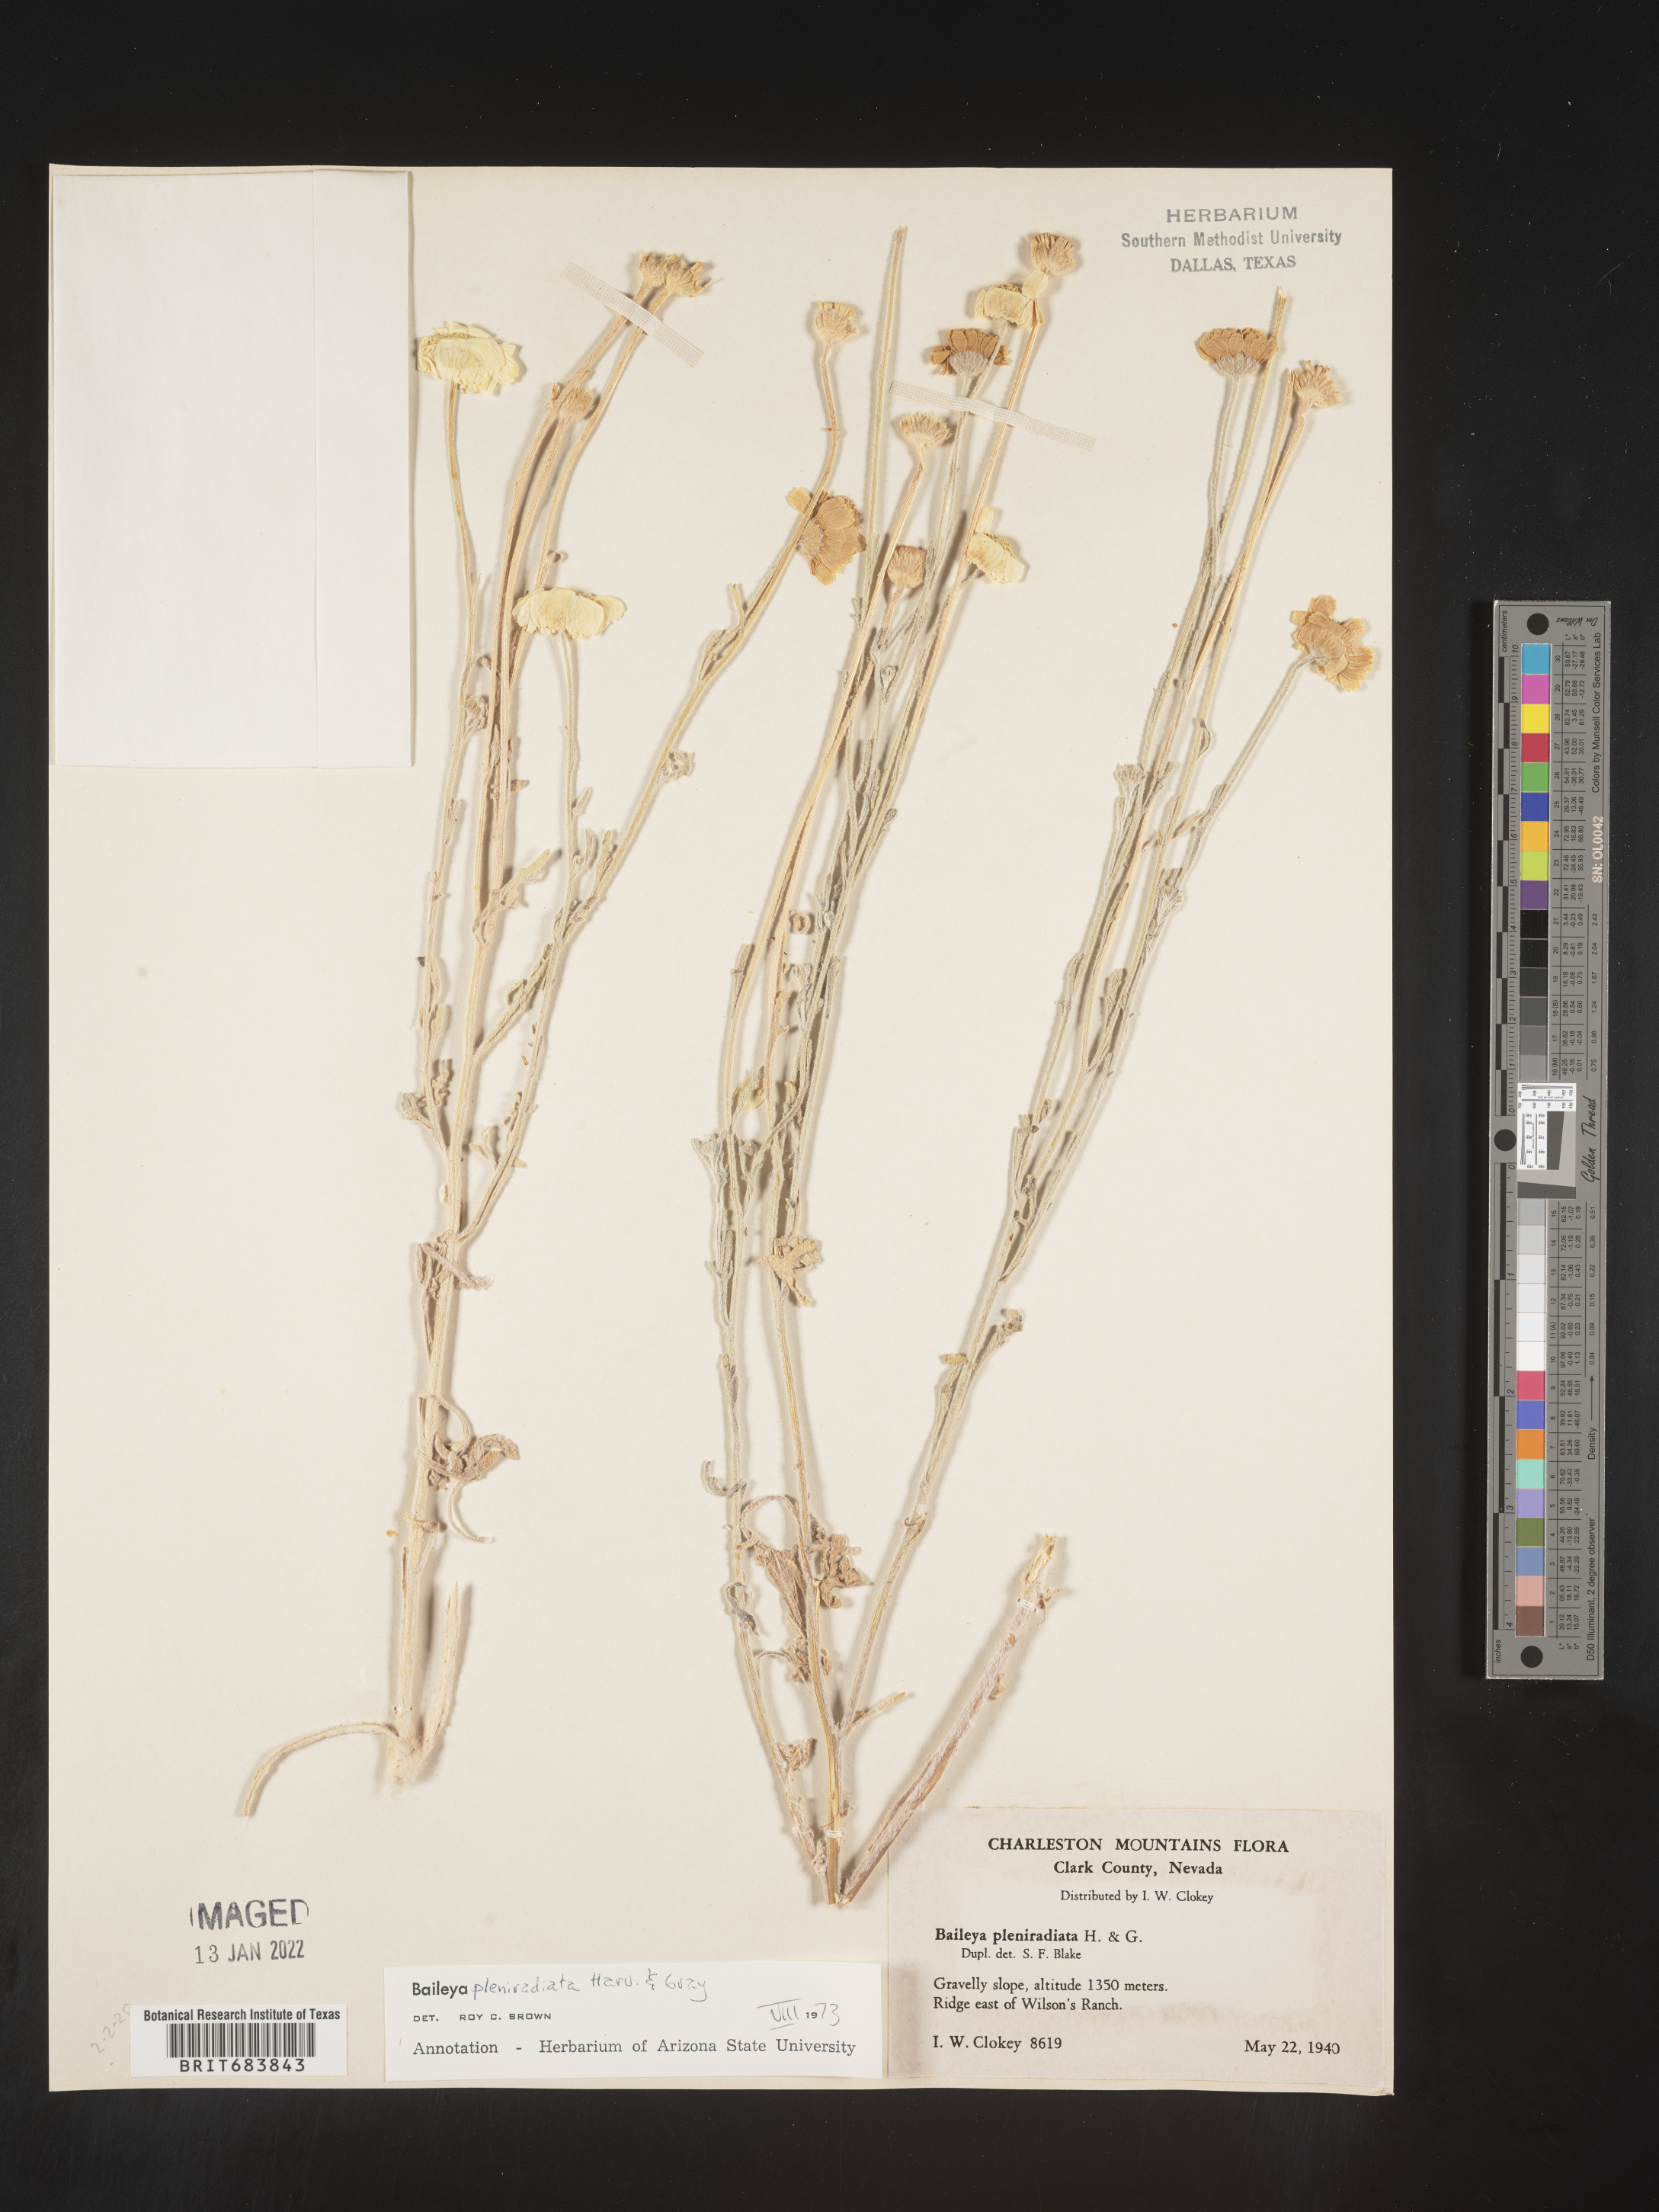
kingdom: Plantae
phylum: Tracheophyta
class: Magnoliopsida
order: Asterales
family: Asteraceae
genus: Baileya
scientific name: Baileya pleniradiata
